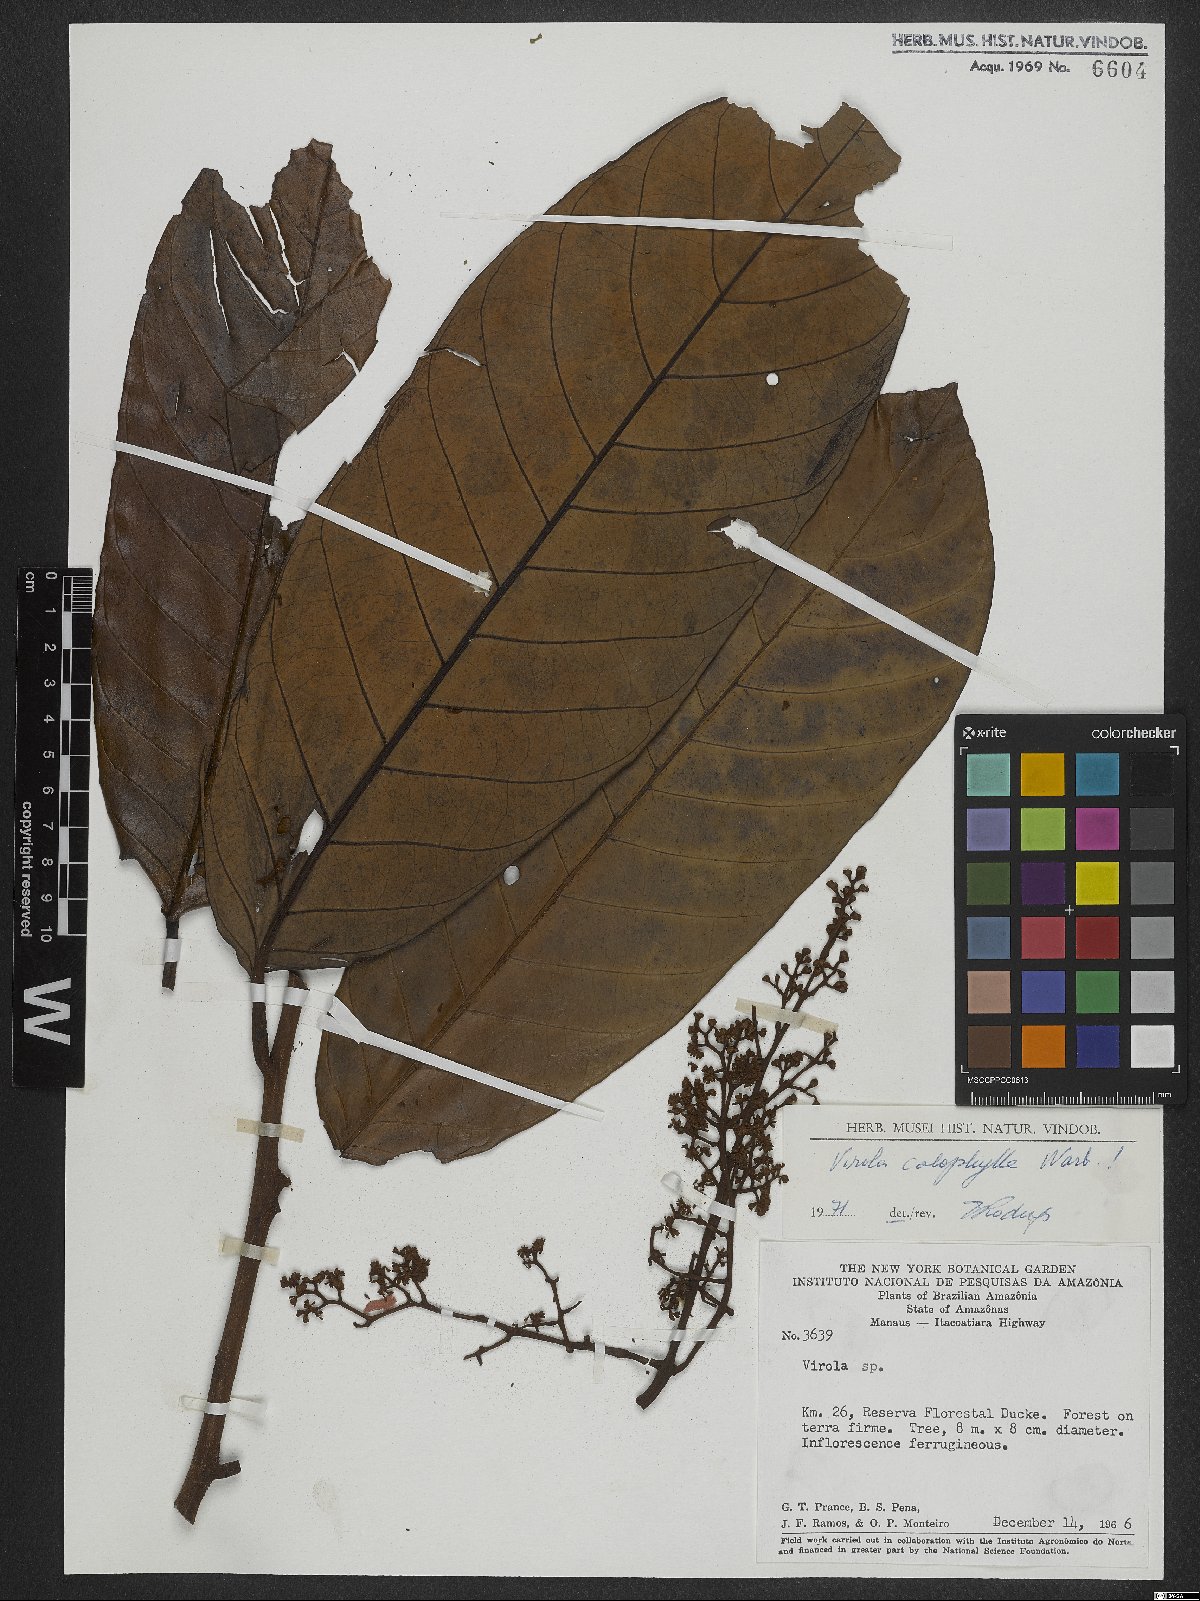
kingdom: Plantae
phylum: Tracheophyta
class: Magnoliopsida
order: Magnoliales
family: Myristicaceae
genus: Virola
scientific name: Virola calophylla
